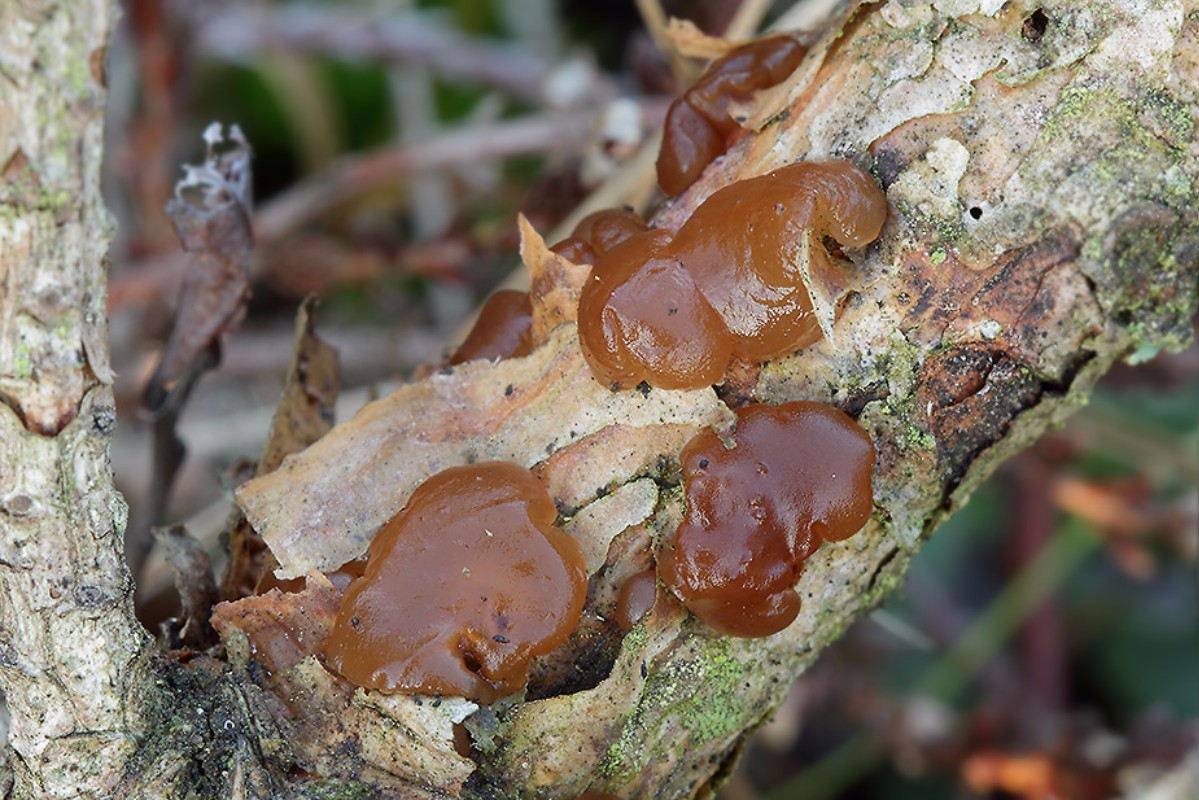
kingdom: Fungi
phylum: Basidiomycota
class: Agaricomycetes
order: Auriculariales
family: Auriculariaceae
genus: Exidia
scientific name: Exidia saccharina
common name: kandis-bævretop
